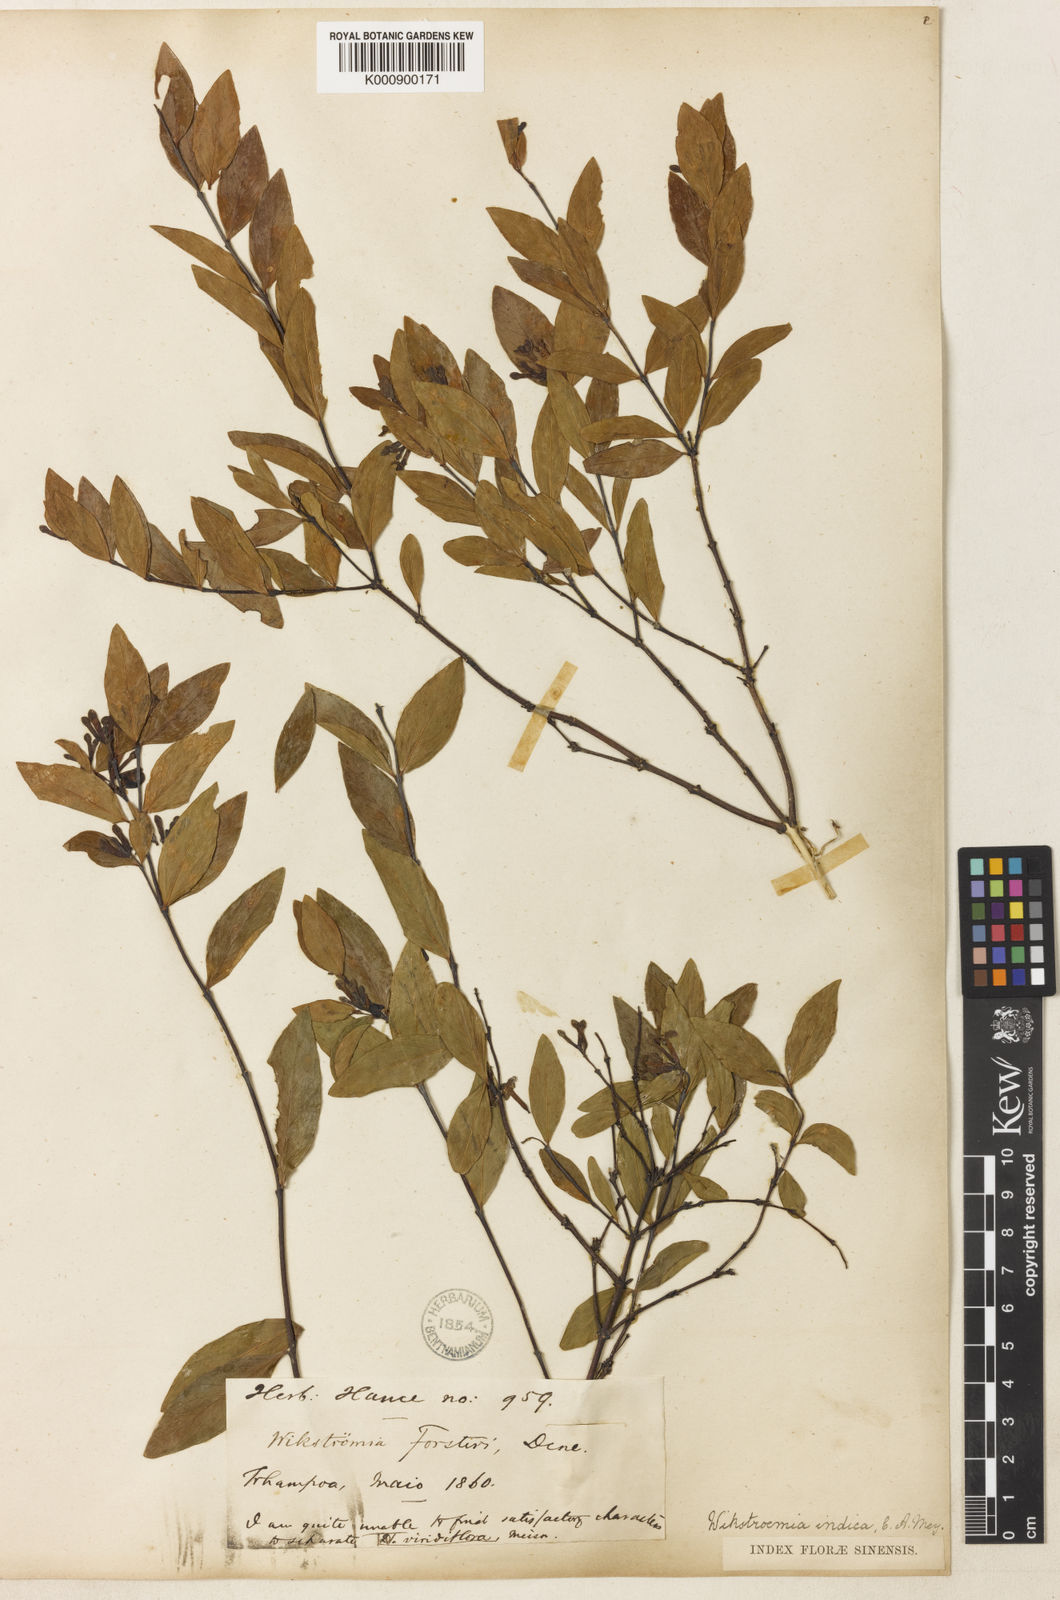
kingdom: Plantae
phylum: Tracheophyta
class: Magnoliopsida
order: Malvales
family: Thymelaeaceae
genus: Wikstroemia
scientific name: Wikstroemia indica
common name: Tiebush
